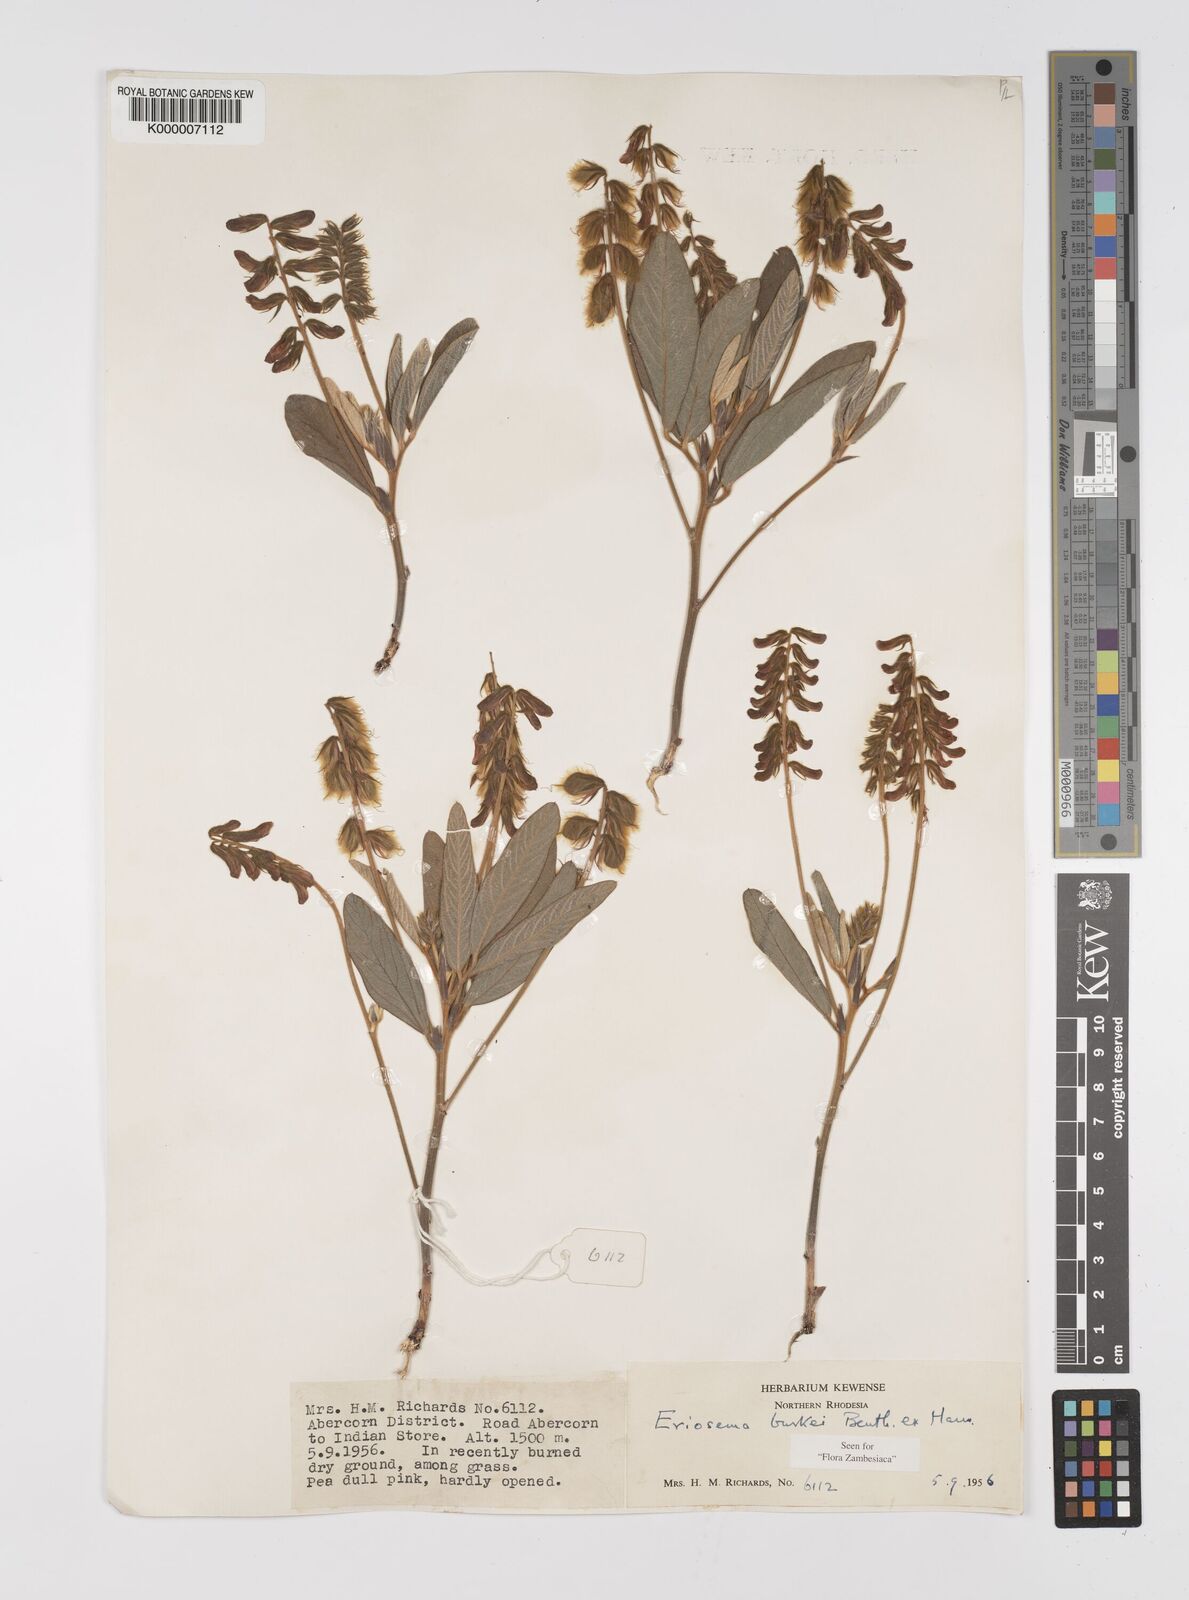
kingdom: Plantae
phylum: Tracheophyta
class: Magnoliopsida
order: Fabales
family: Fabaceae
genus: Eriosema
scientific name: Eriosema burkei
